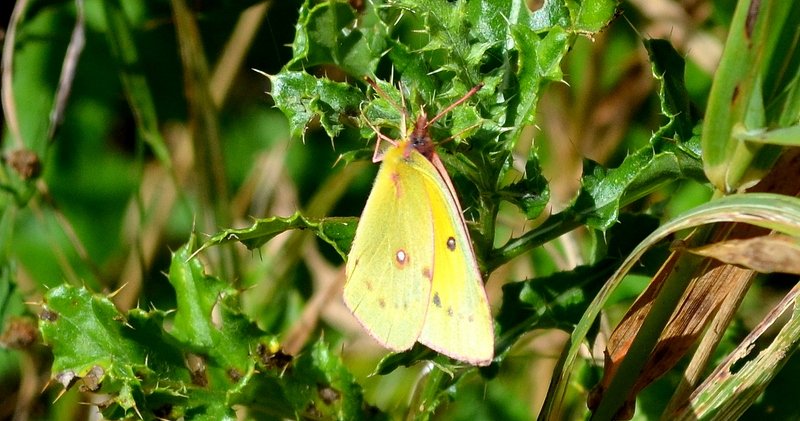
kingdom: Animalia
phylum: Arthropoda
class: Insecta
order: Lepidoptera
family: Pieridae
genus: Colias
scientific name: Colias eurytheme
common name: Orange Sulphur
